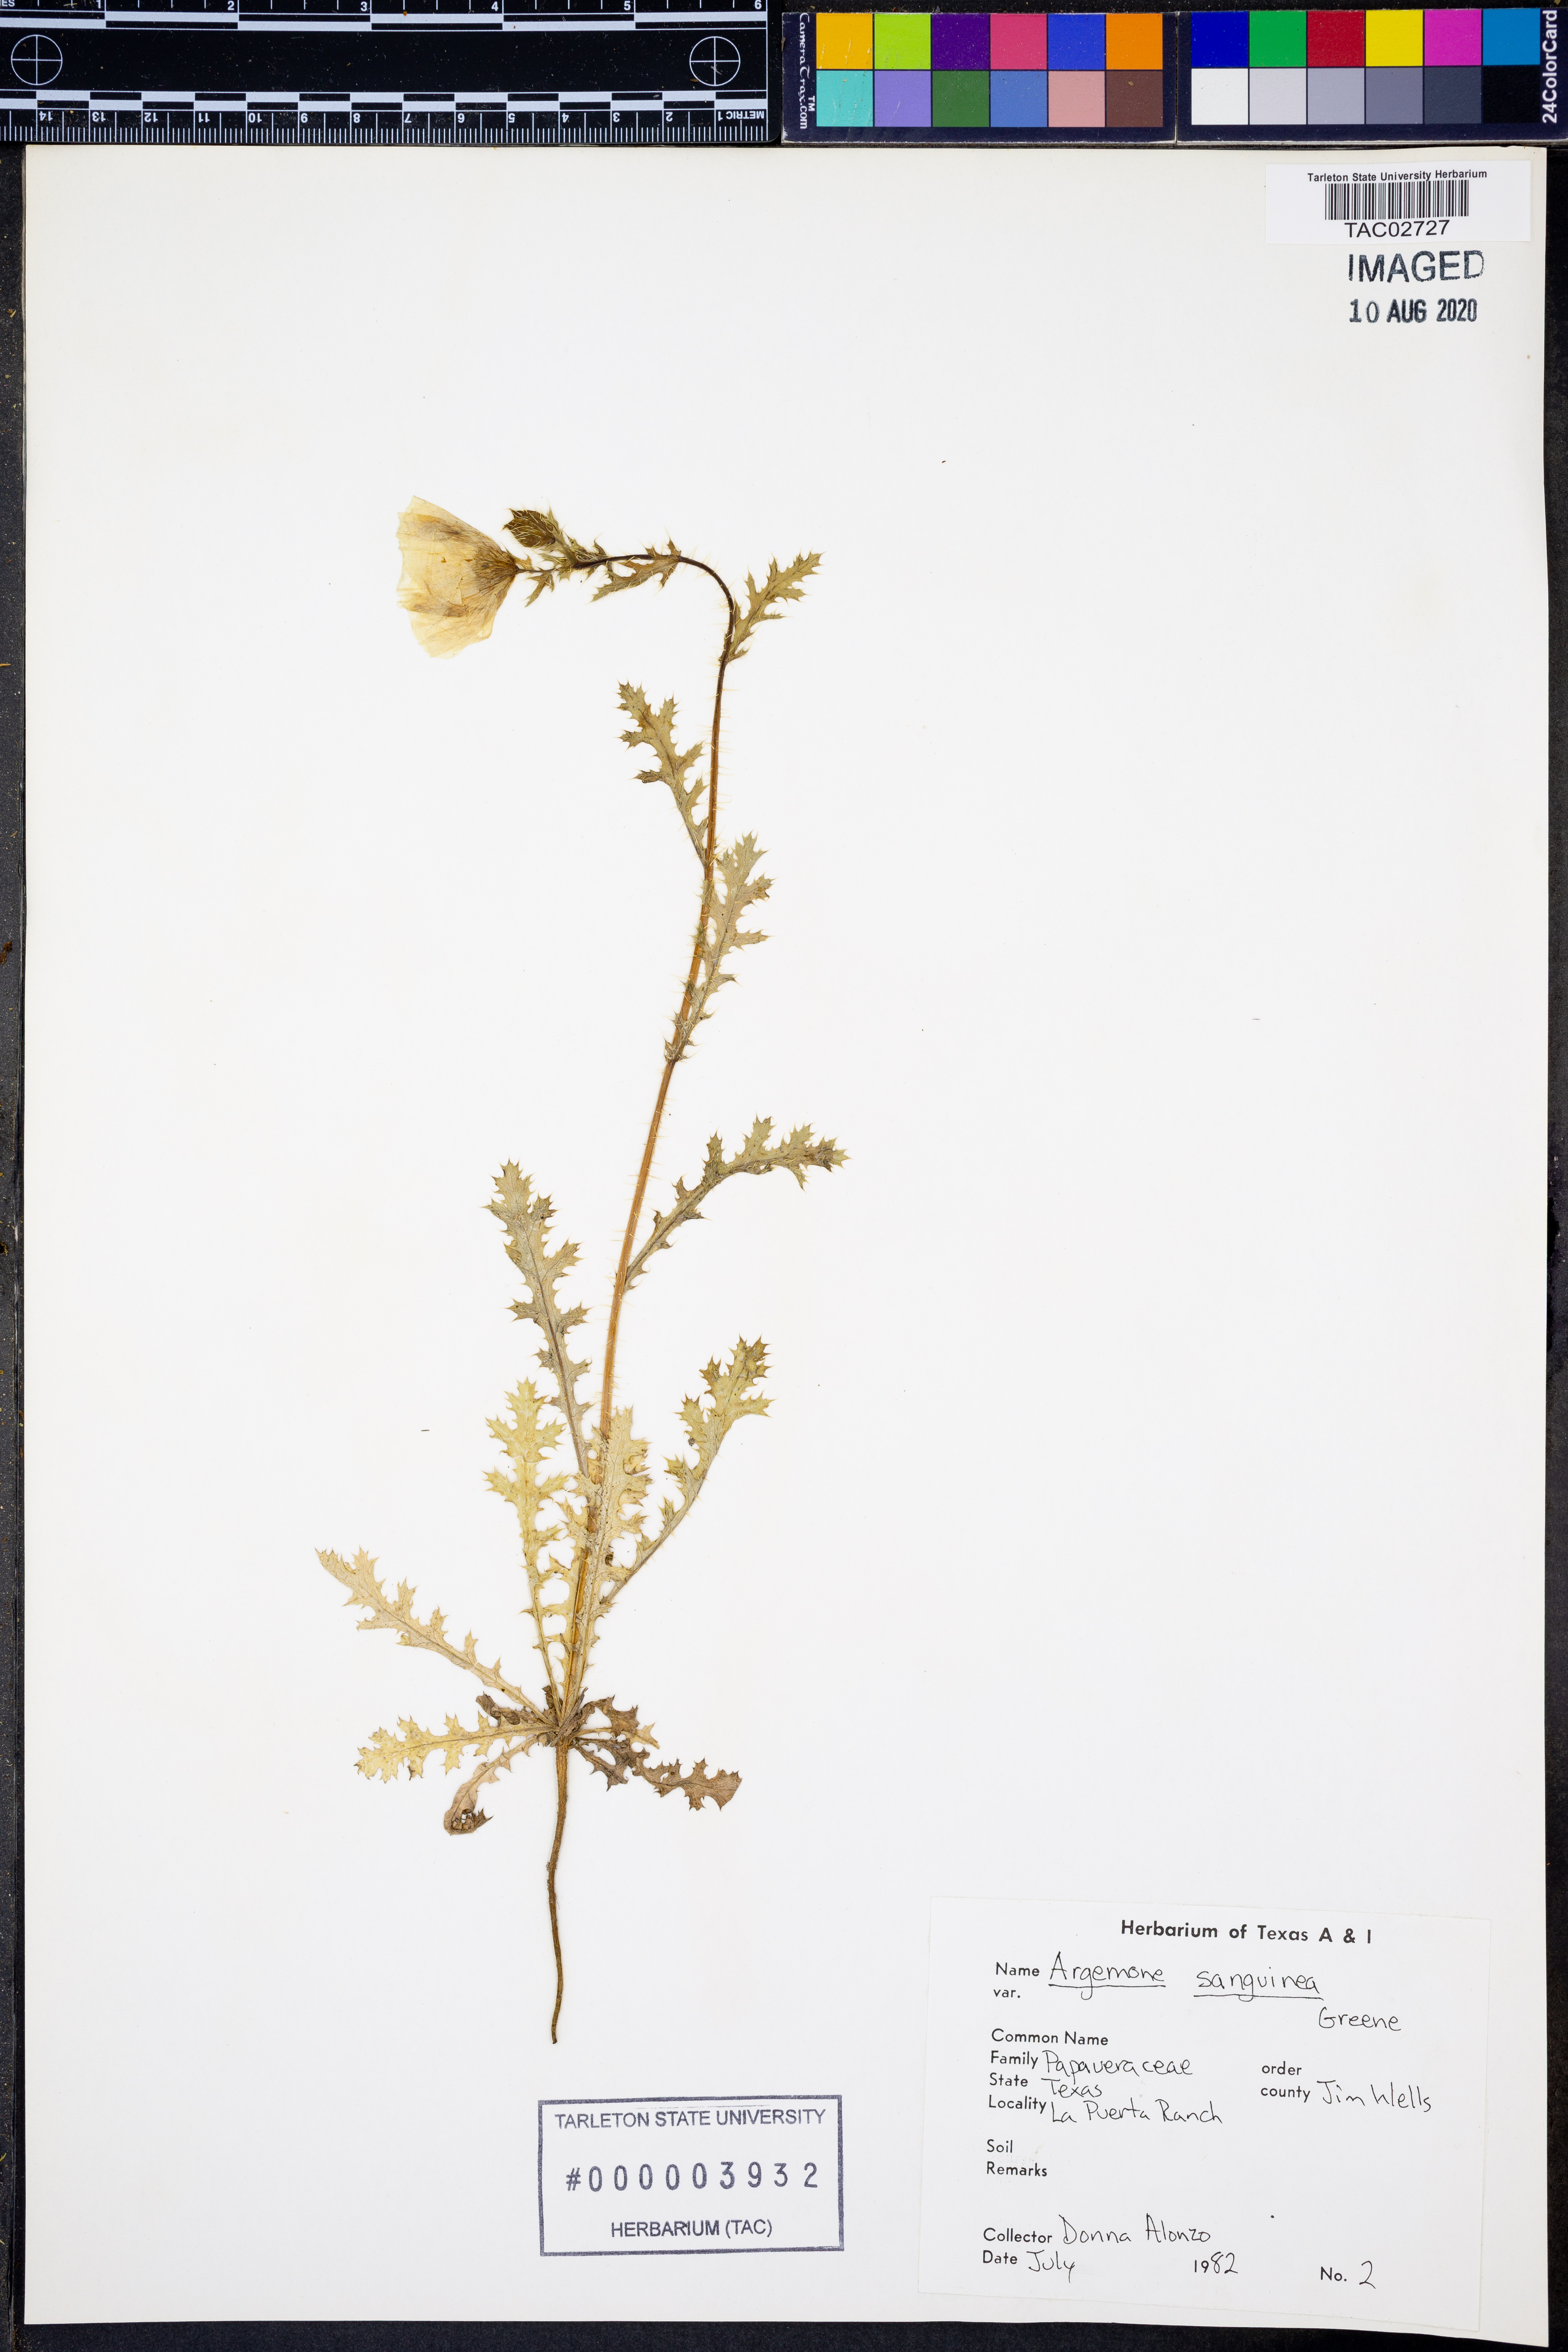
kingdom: Plantae
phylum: Tracheophyta
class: Magnoliopsida
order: Ranunculales
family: Papaveraceae
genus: Argemone
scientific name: Argemone sanguinea
